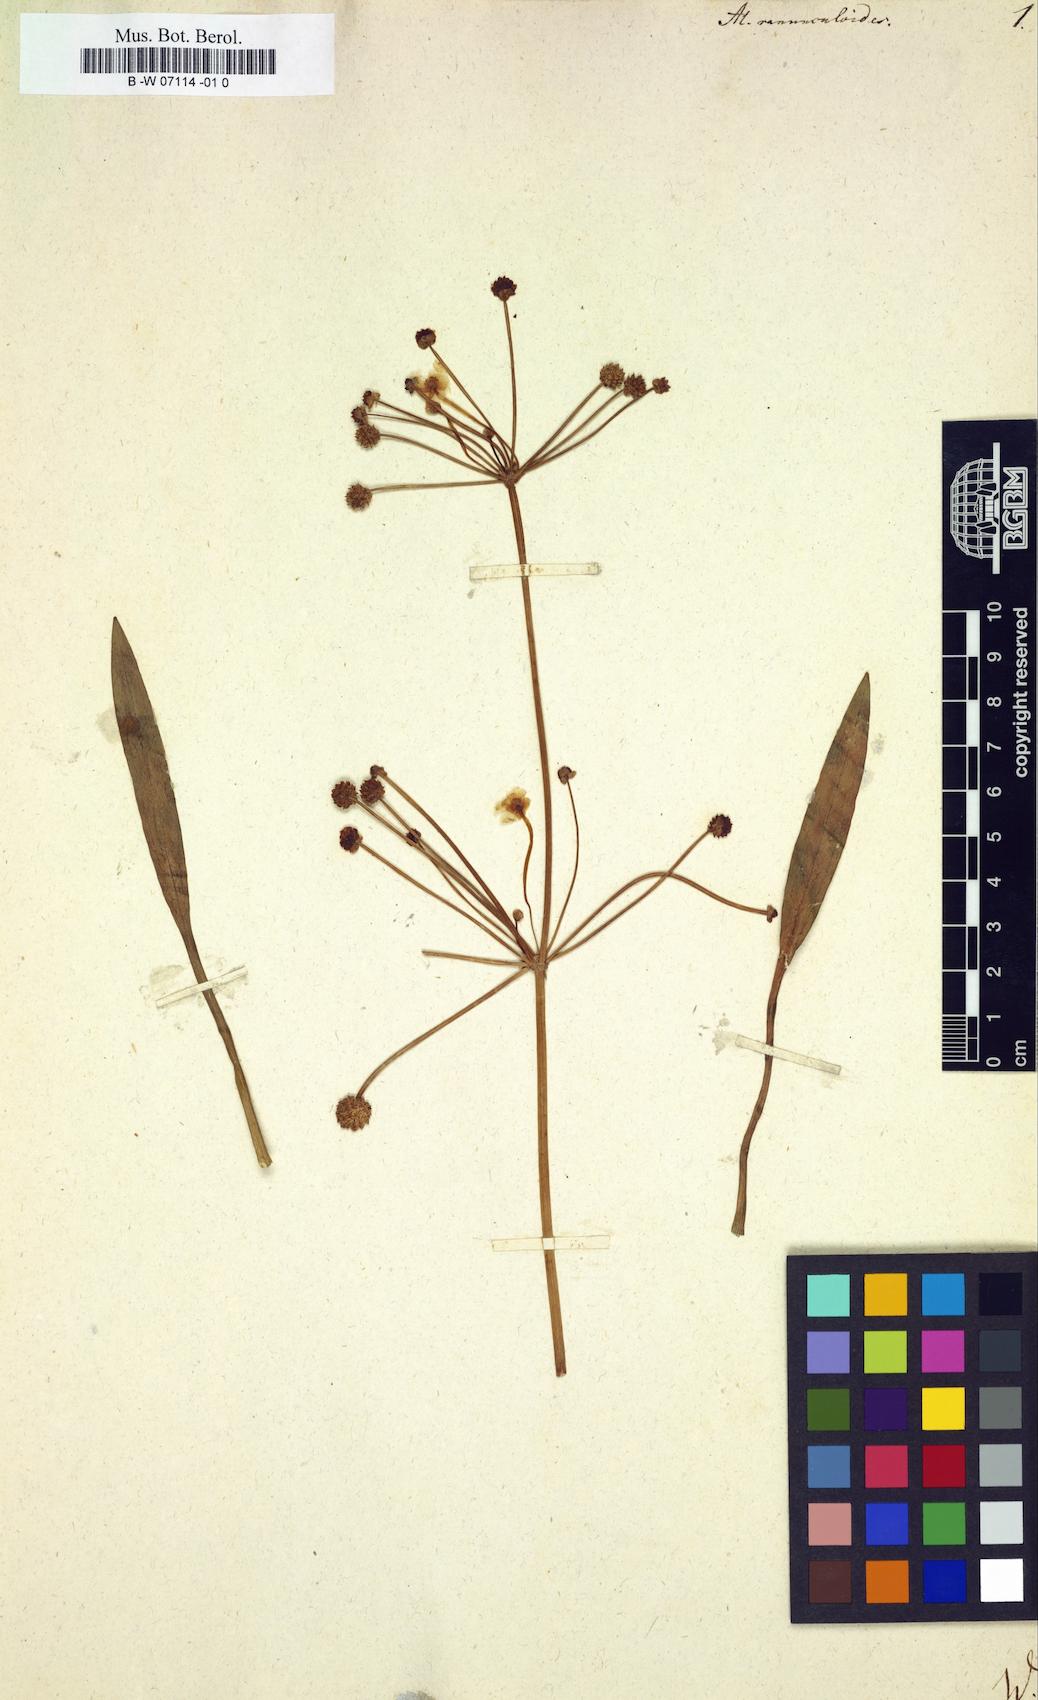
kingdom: Plantae
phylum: Tracheophyta
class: Liliopsida
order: Alismatales
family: Alismataceae
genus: Alisma
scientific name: Alisma ranunculoides
